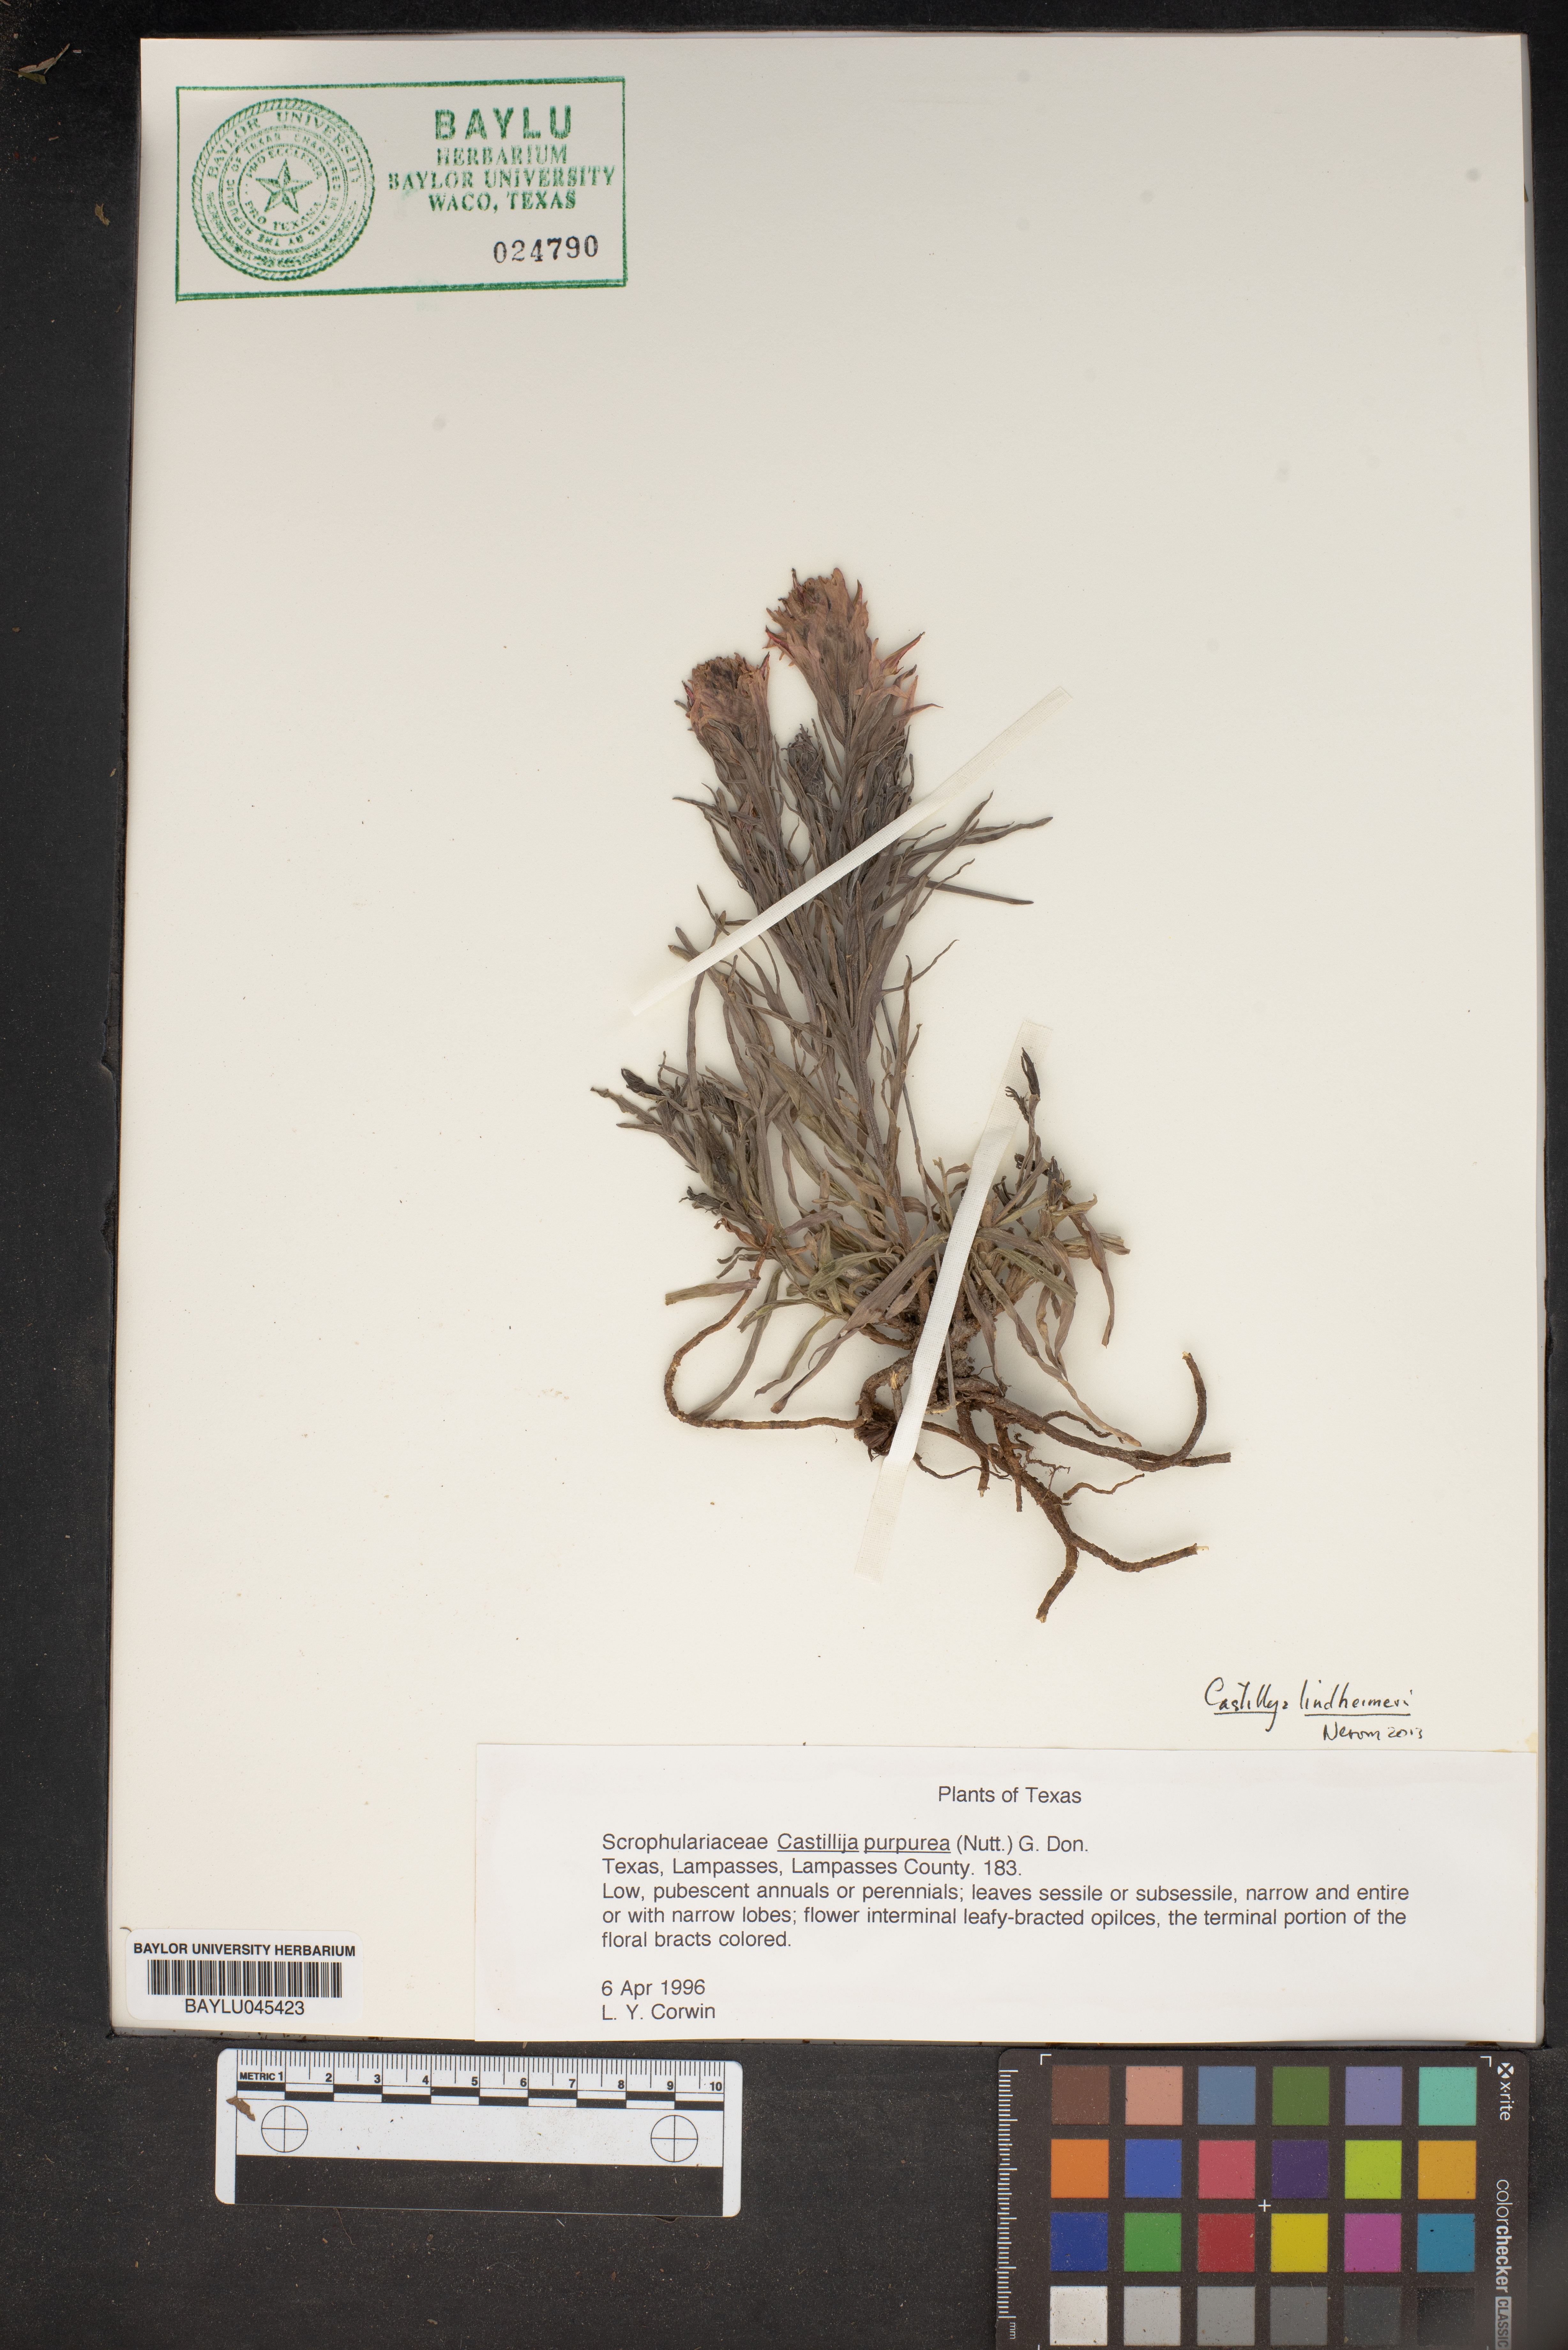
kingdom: Plantae
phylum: Tracheophyta
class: Magnoliopsida
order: Lamiales
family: Orobanchaceae
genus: Castilleja
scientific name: Castilleja purpurea
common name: Plains paintbrush
